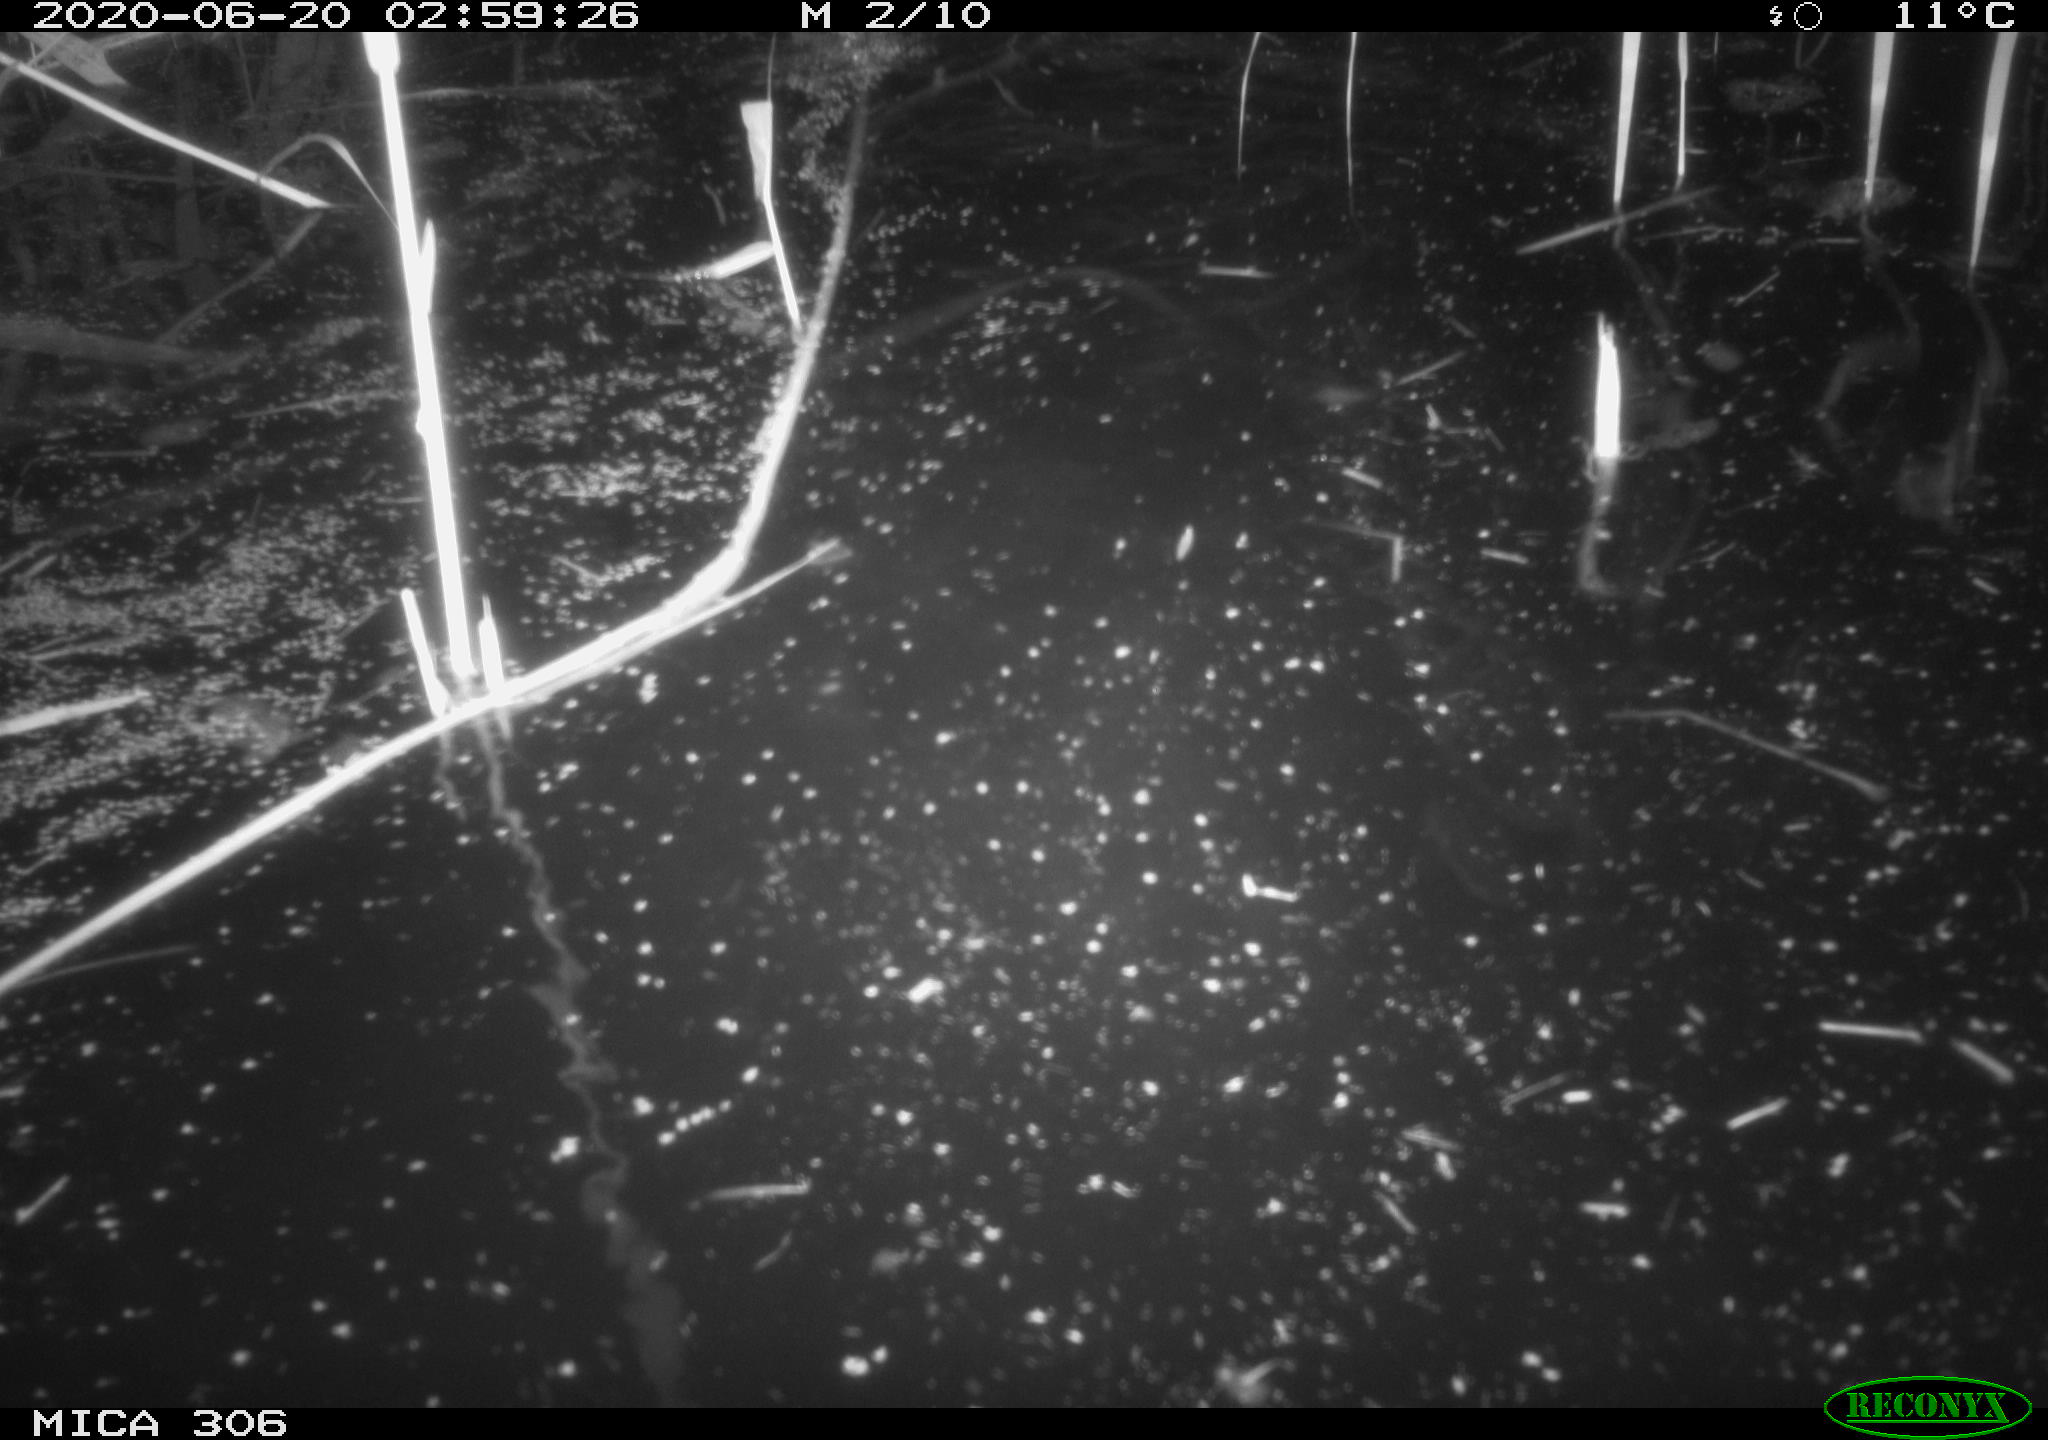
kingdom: Animalia
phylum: Chordata
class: Mammalia
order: Rodentia
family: Muridae
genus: Rattus
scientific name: Rattus norvegicus
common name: Brown rat
